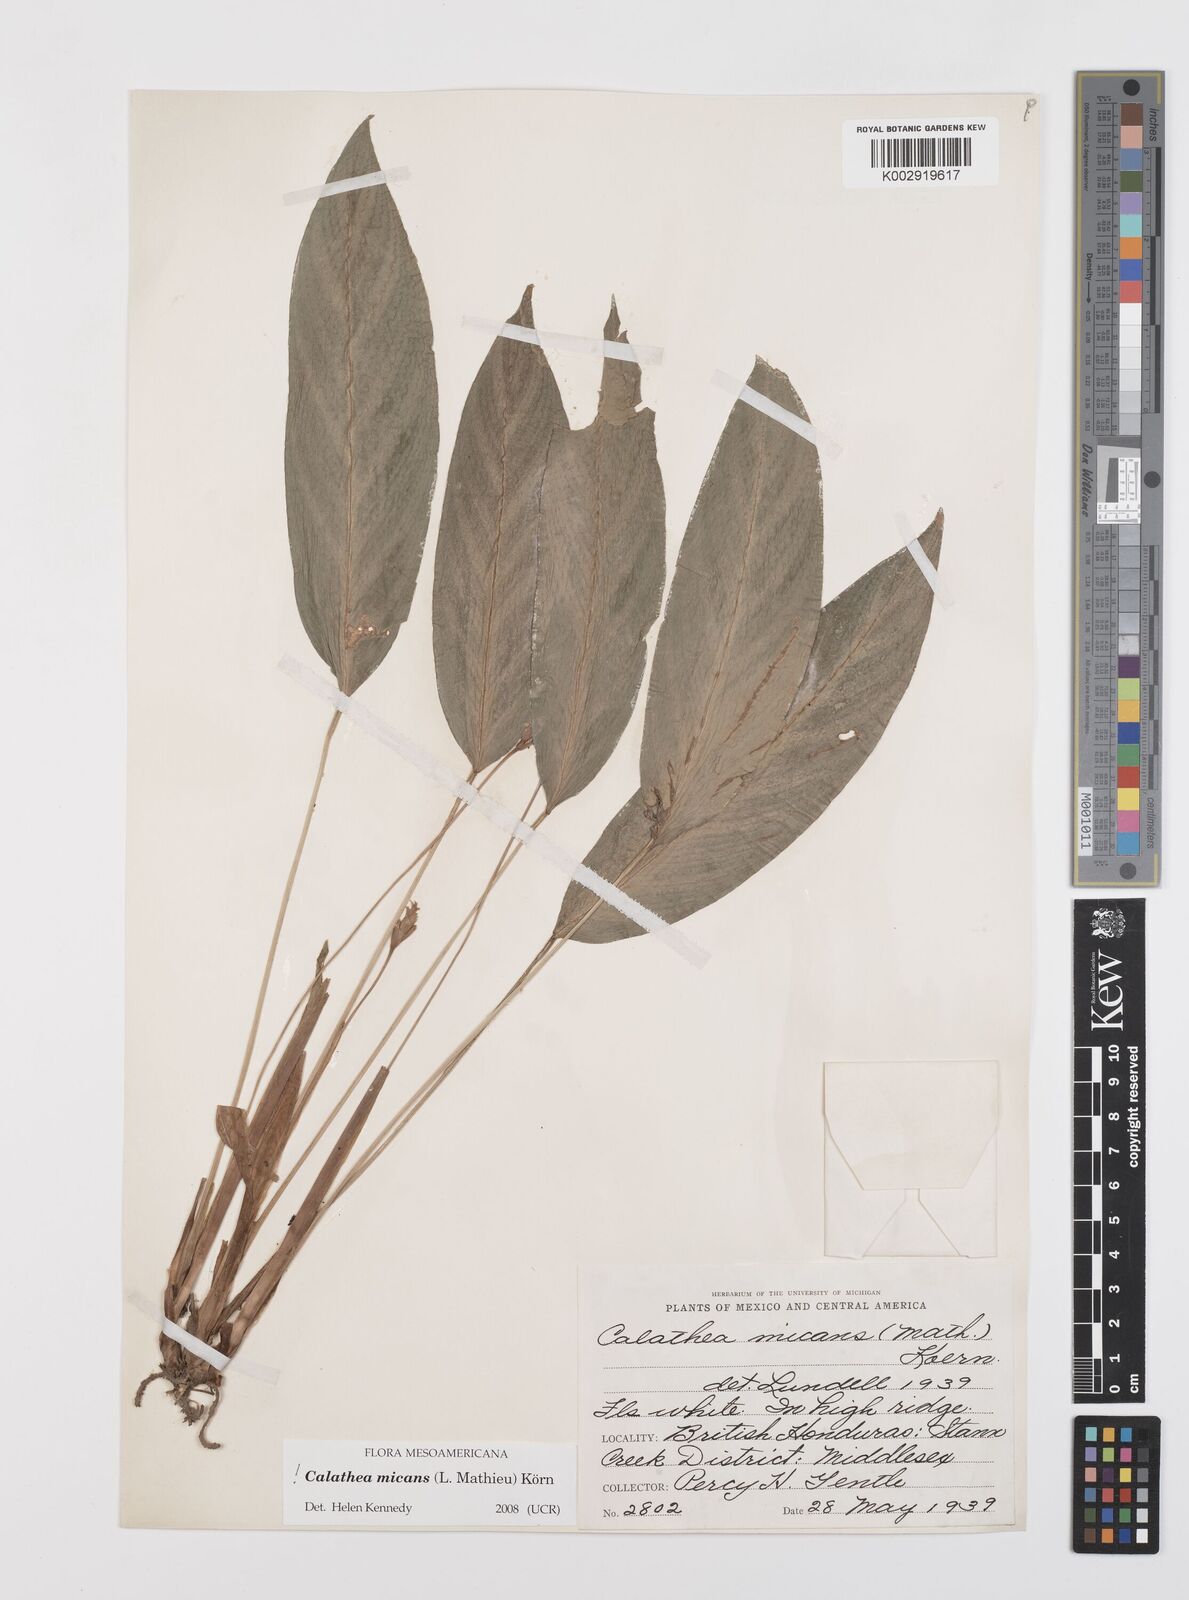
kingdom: Plantae
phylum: Tracheophyta
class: Liliopsida
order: Zingiberales
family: Marantaceae
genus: Goeppertia
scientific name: Goeppertia micans
